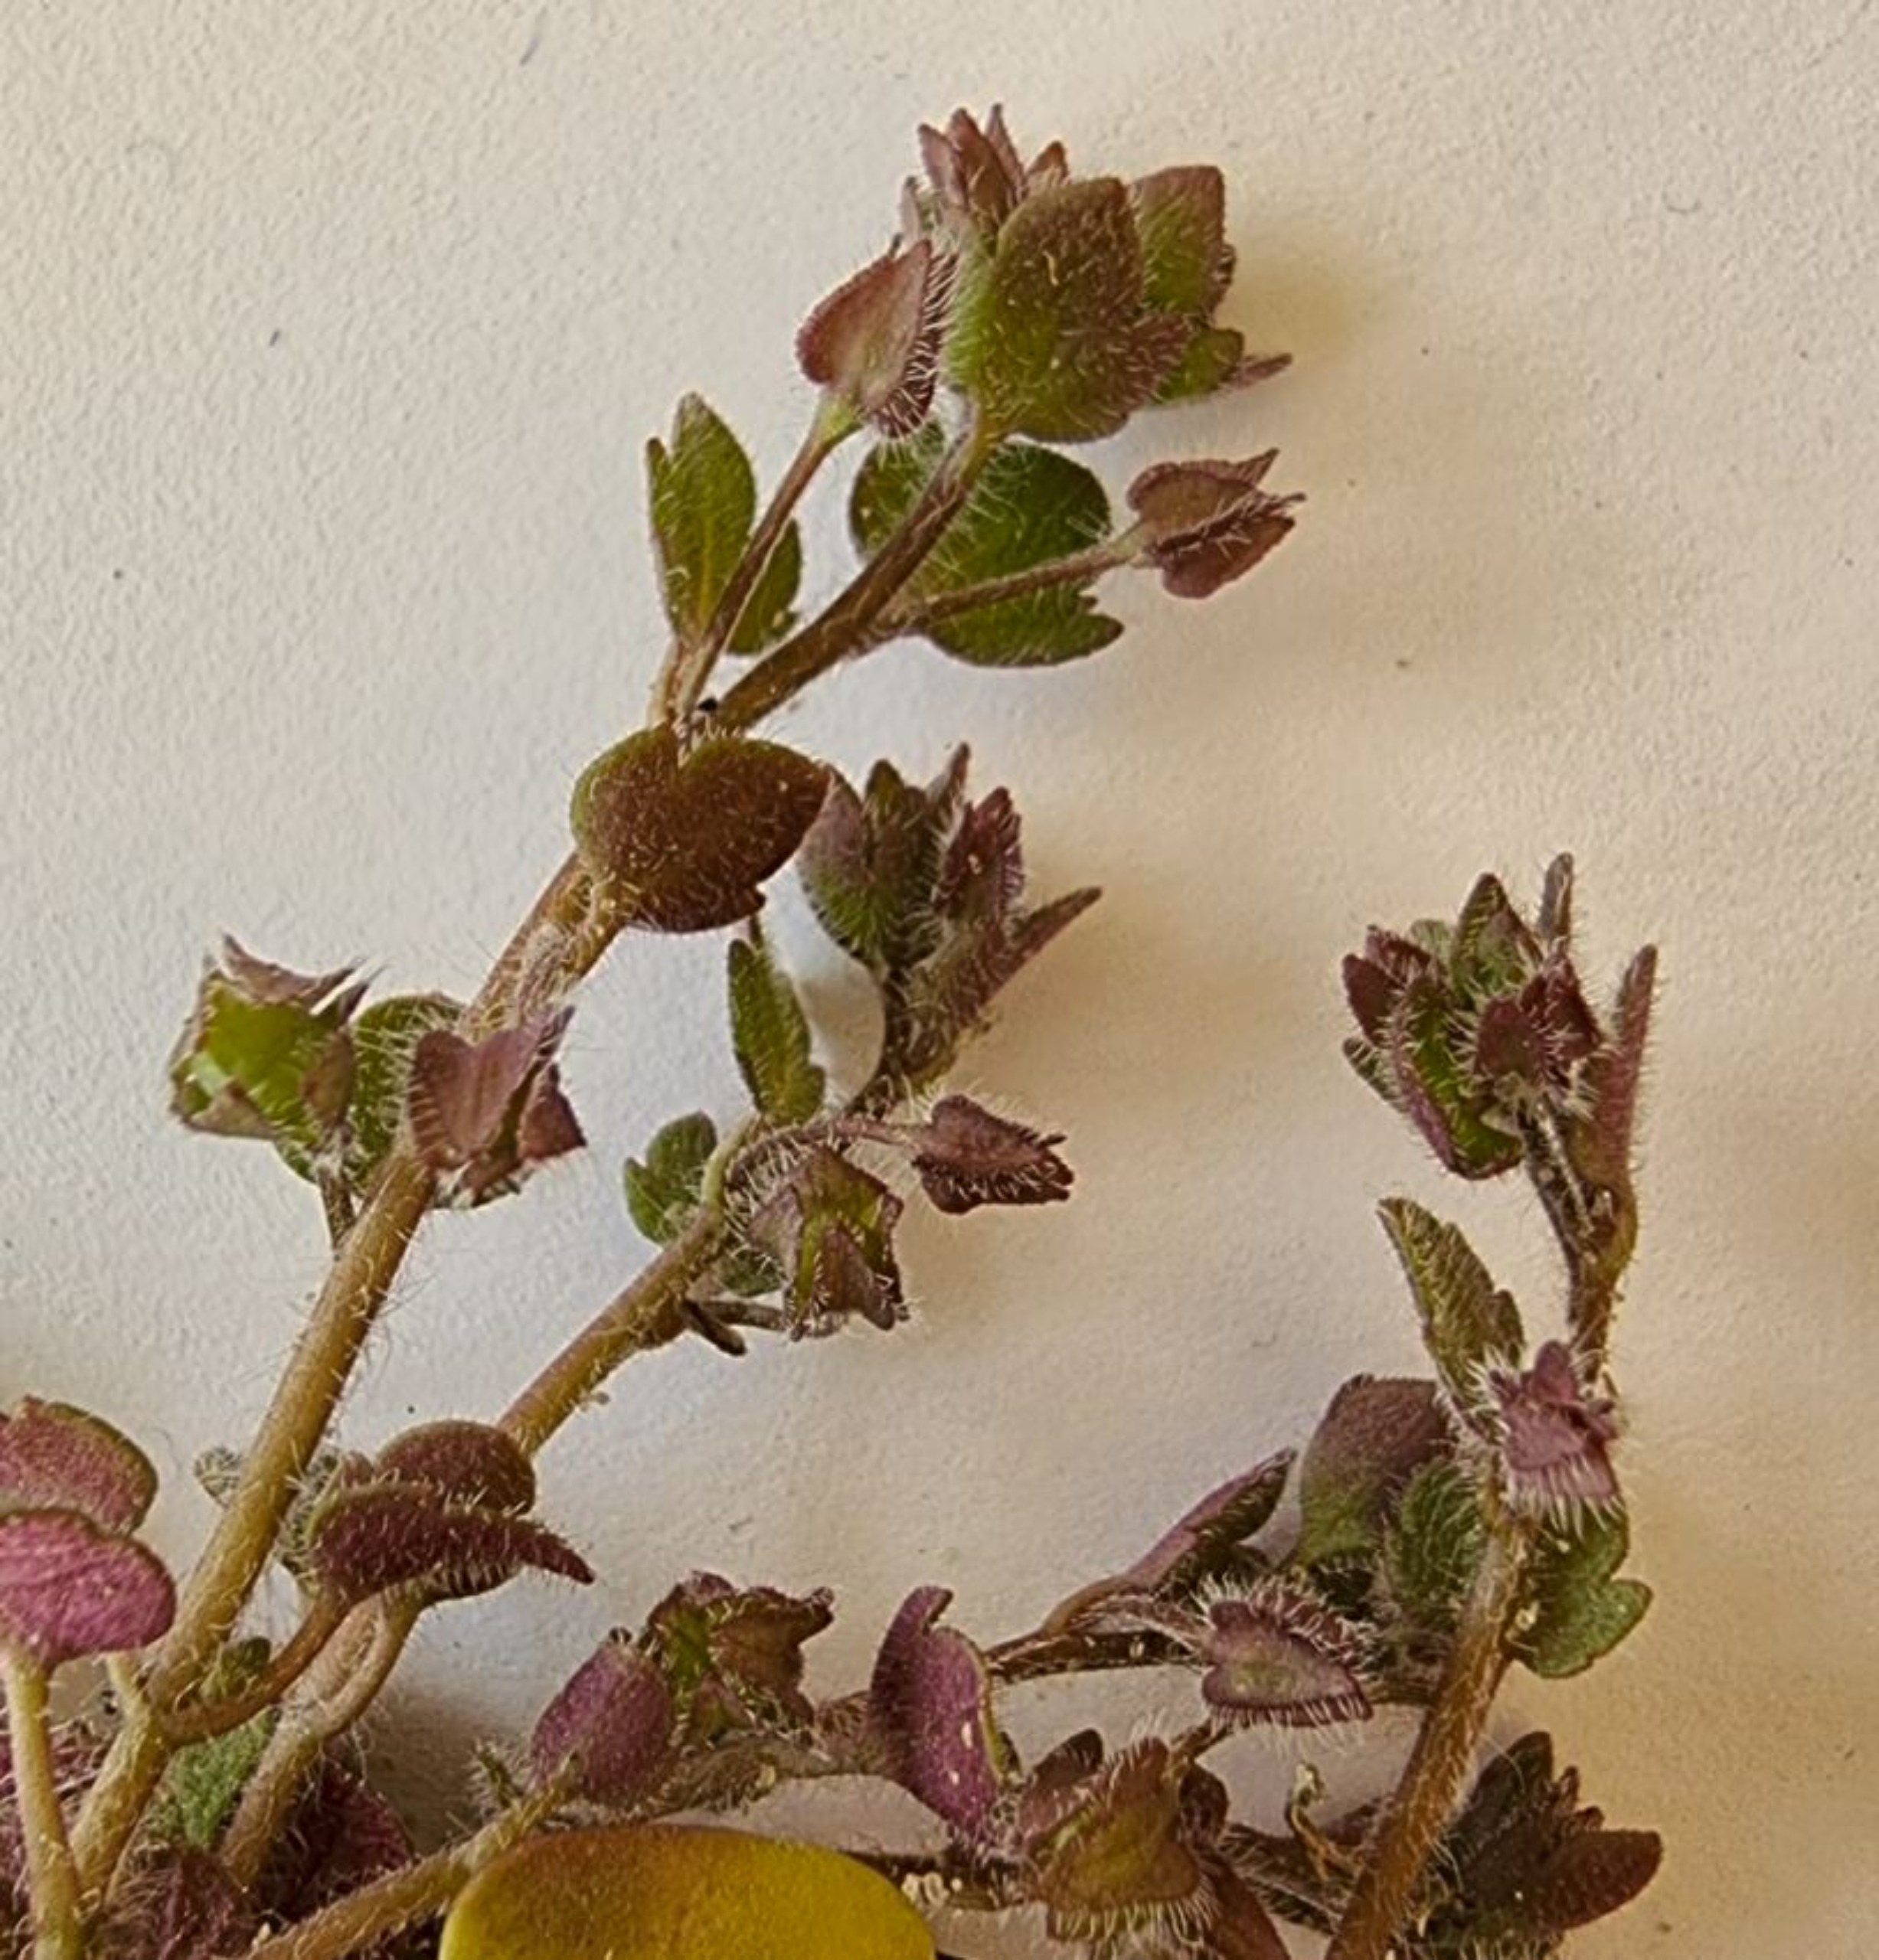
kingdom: Plantae
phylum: Tracheophyta
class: Magnoliopsida
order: Lamiales
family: Plantaginaceae
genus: Veronica
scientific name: Veronica sublobata
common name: Krat-ærenpris
